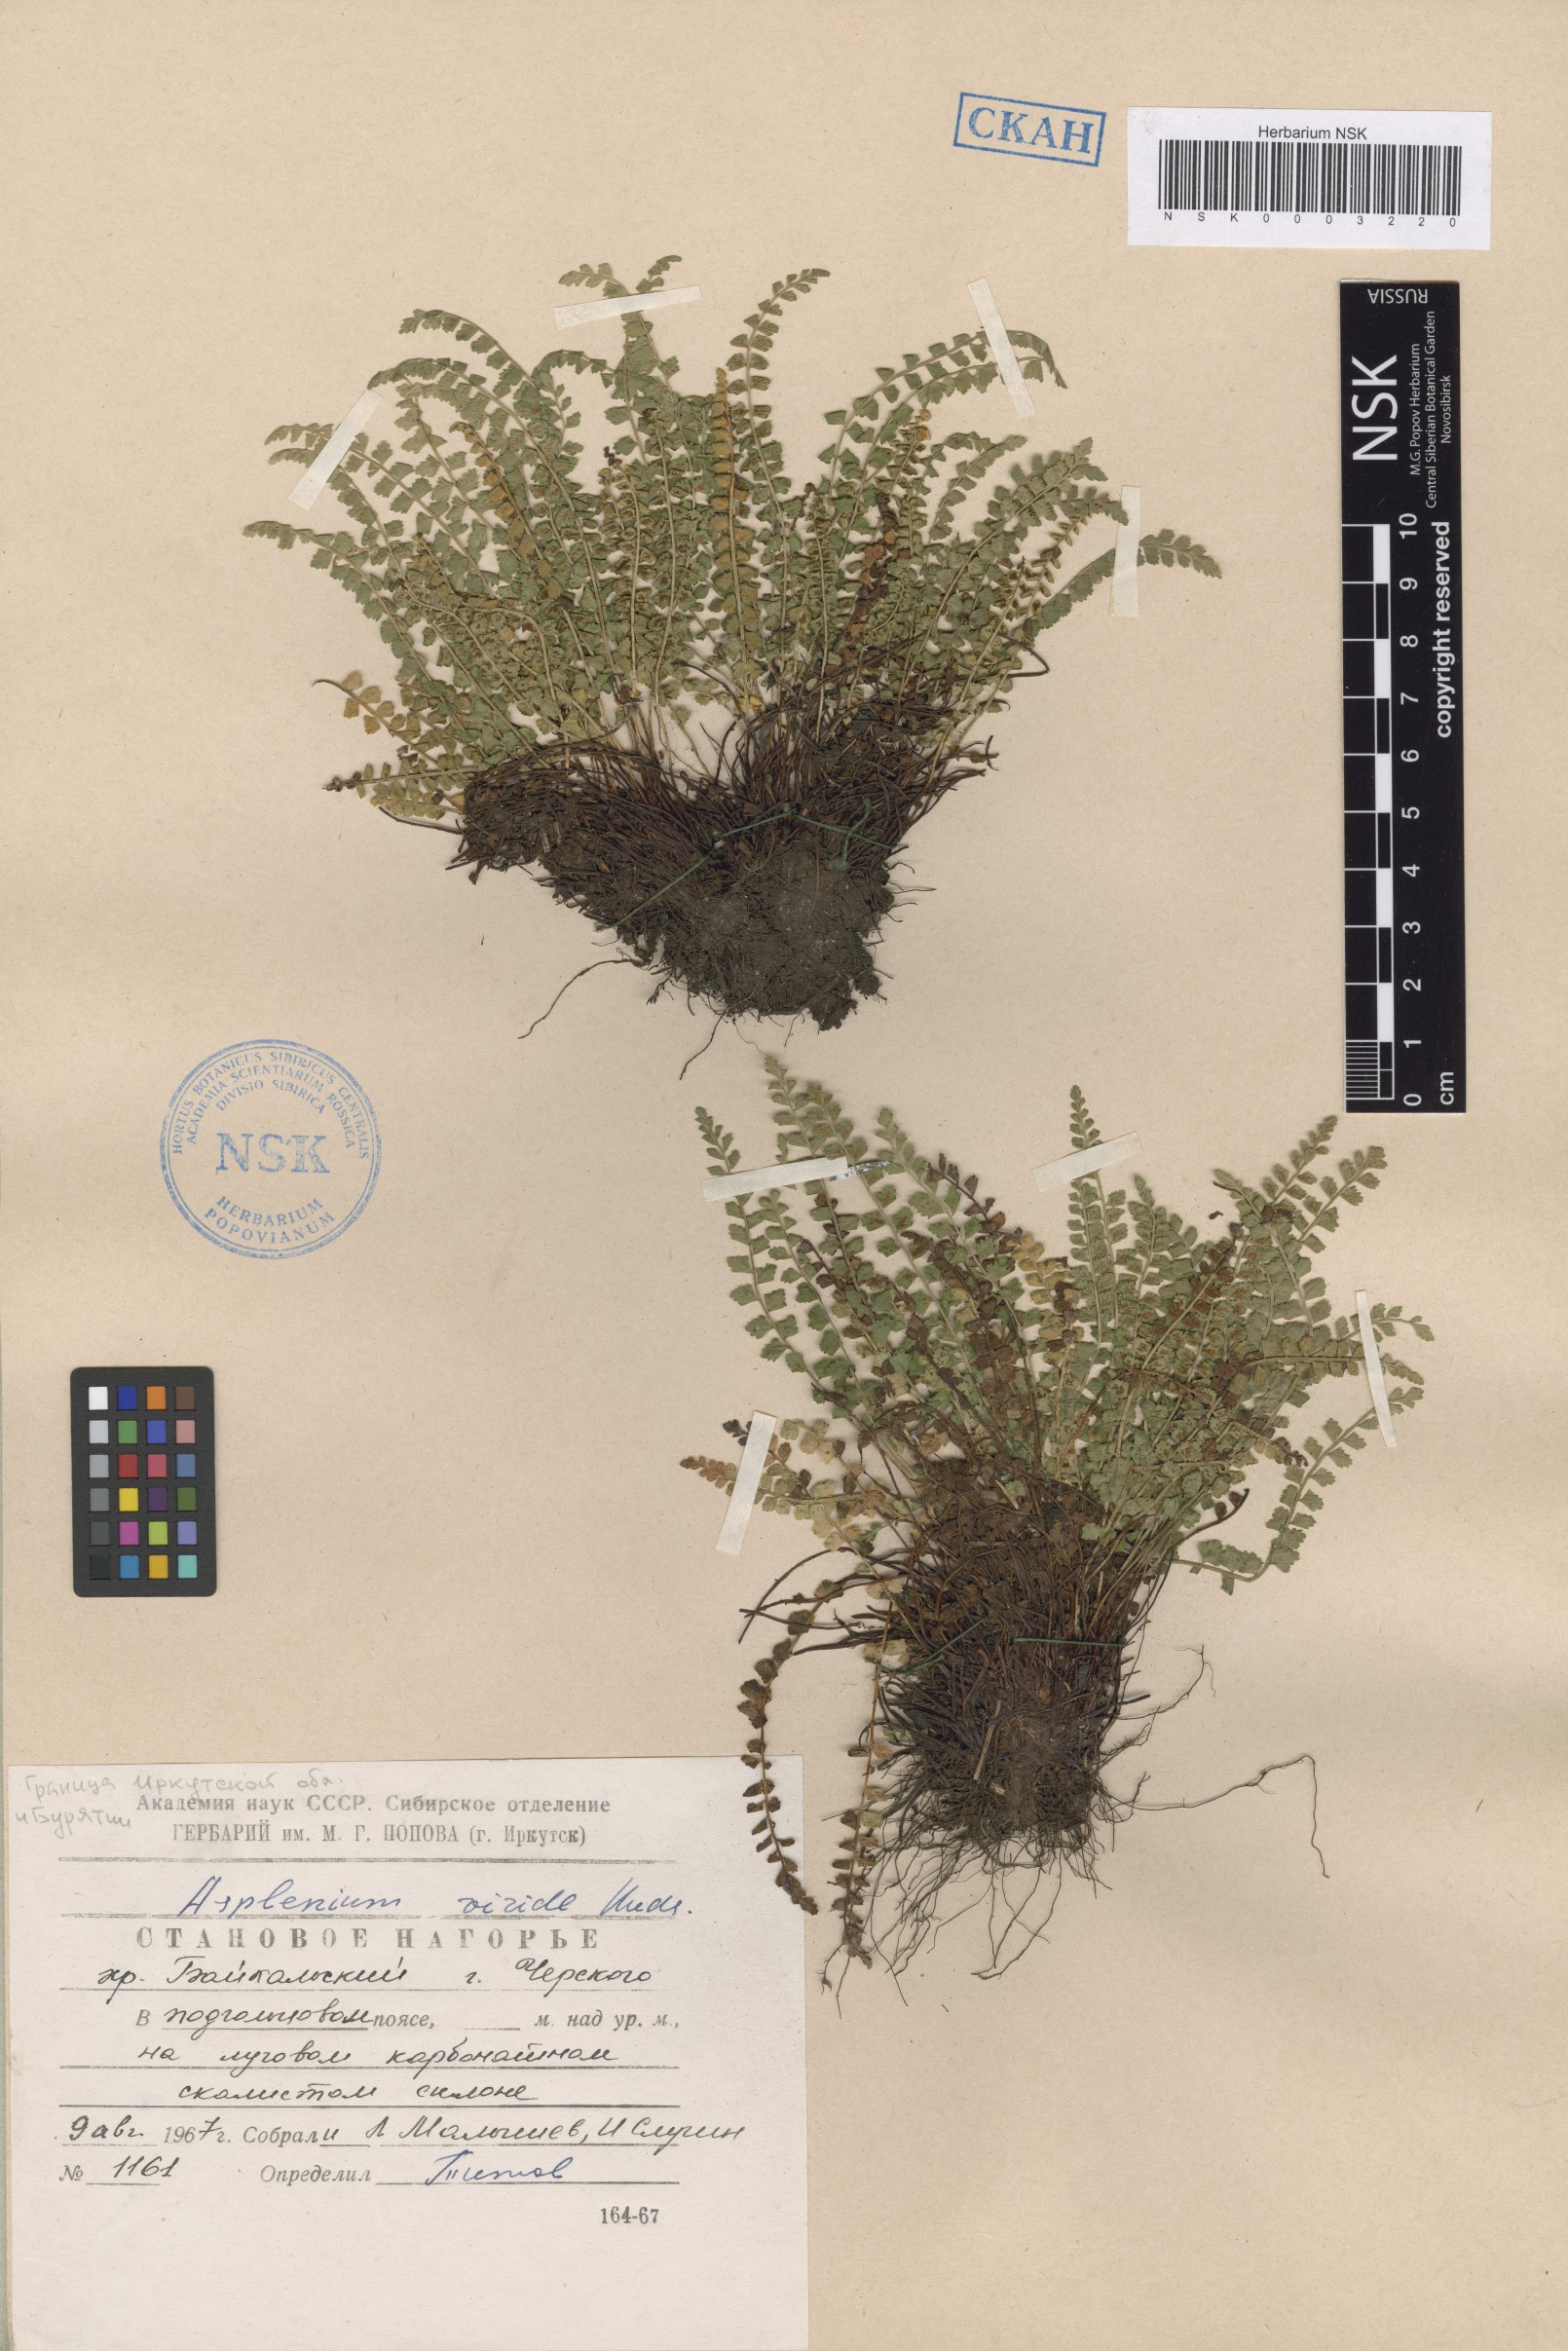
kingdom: Plantae
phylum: Tracheophyta
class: Polypodiopsida
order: Polypodiales
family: Aspleniaceae
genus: Asplenium
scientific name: Asplenium viride
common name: Green spleenwort
